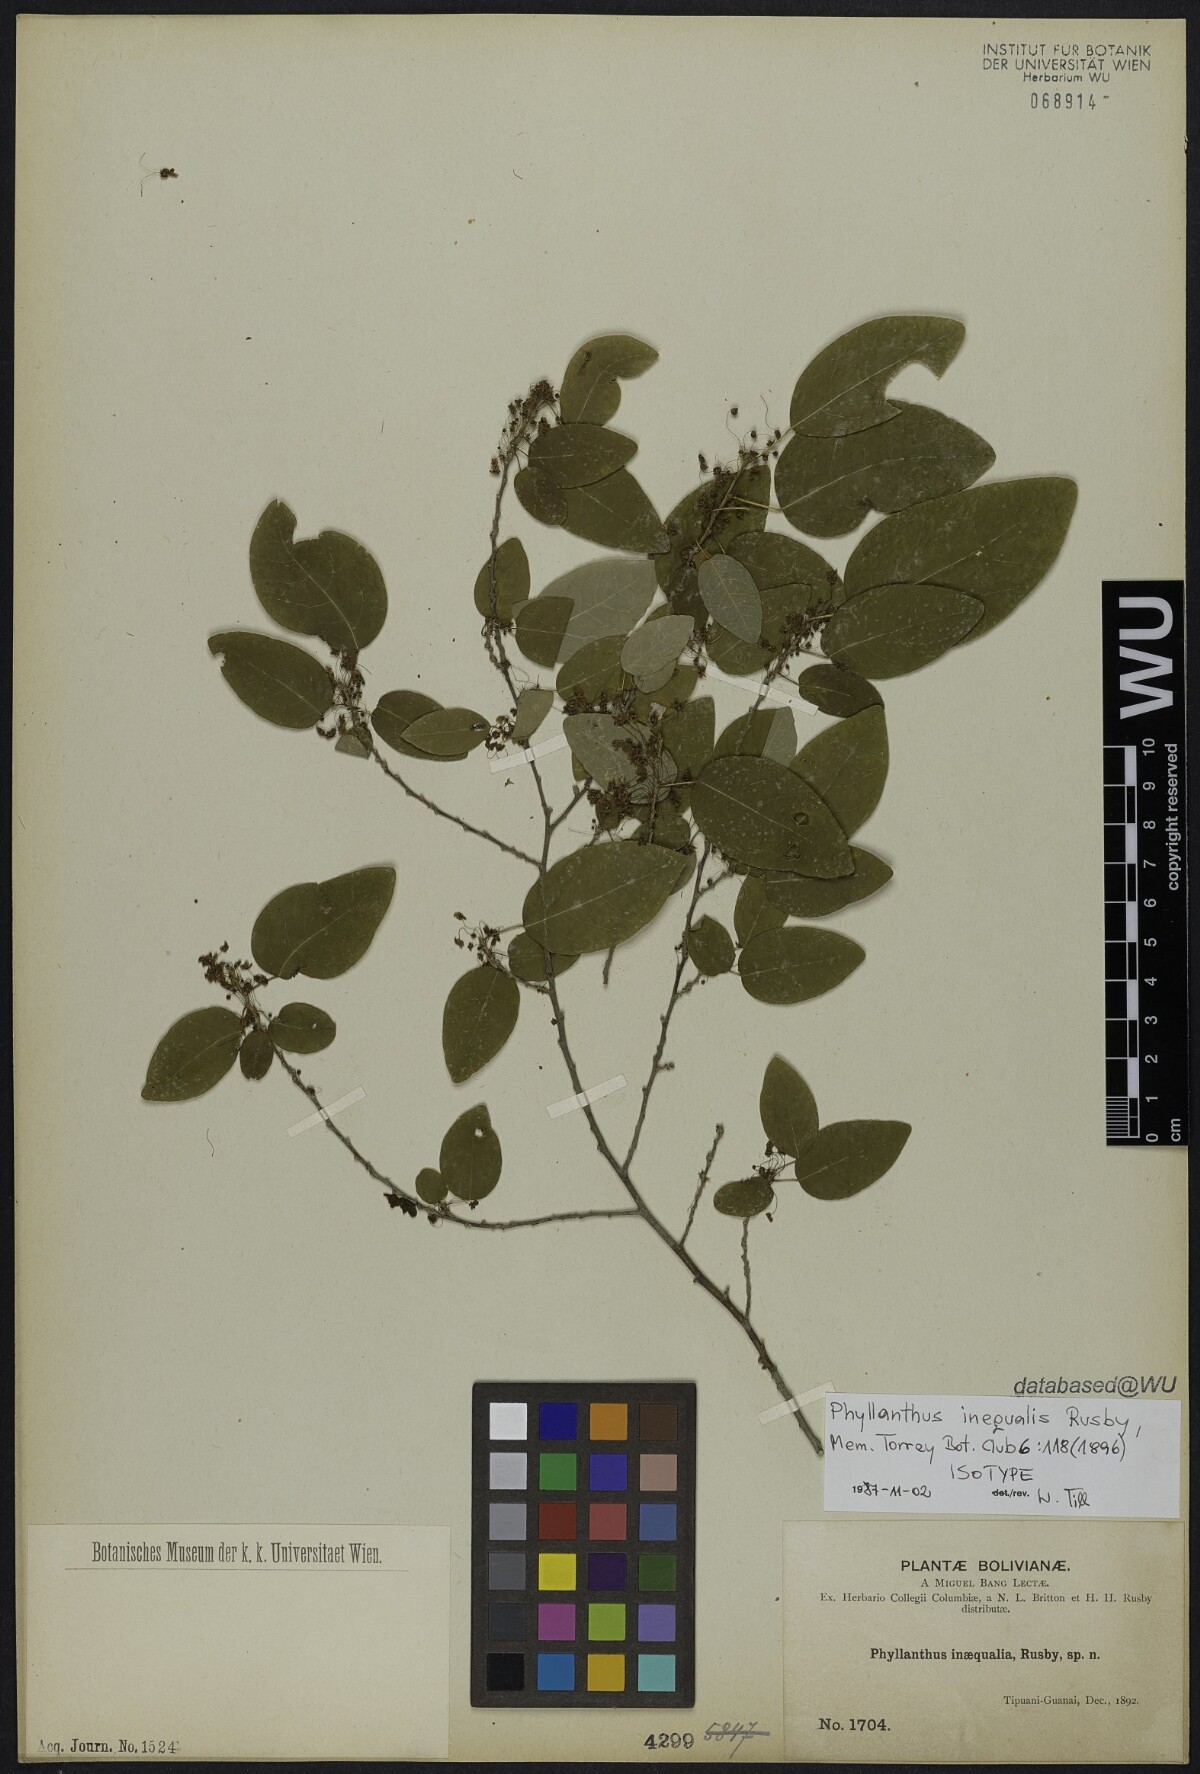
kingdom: Plantae
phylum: Tracheophyta
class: Magnoliopsida
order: Malpighiales
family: Phyllanthaceae
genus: Astrocasia
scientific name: Astrocasia jacobinensis
